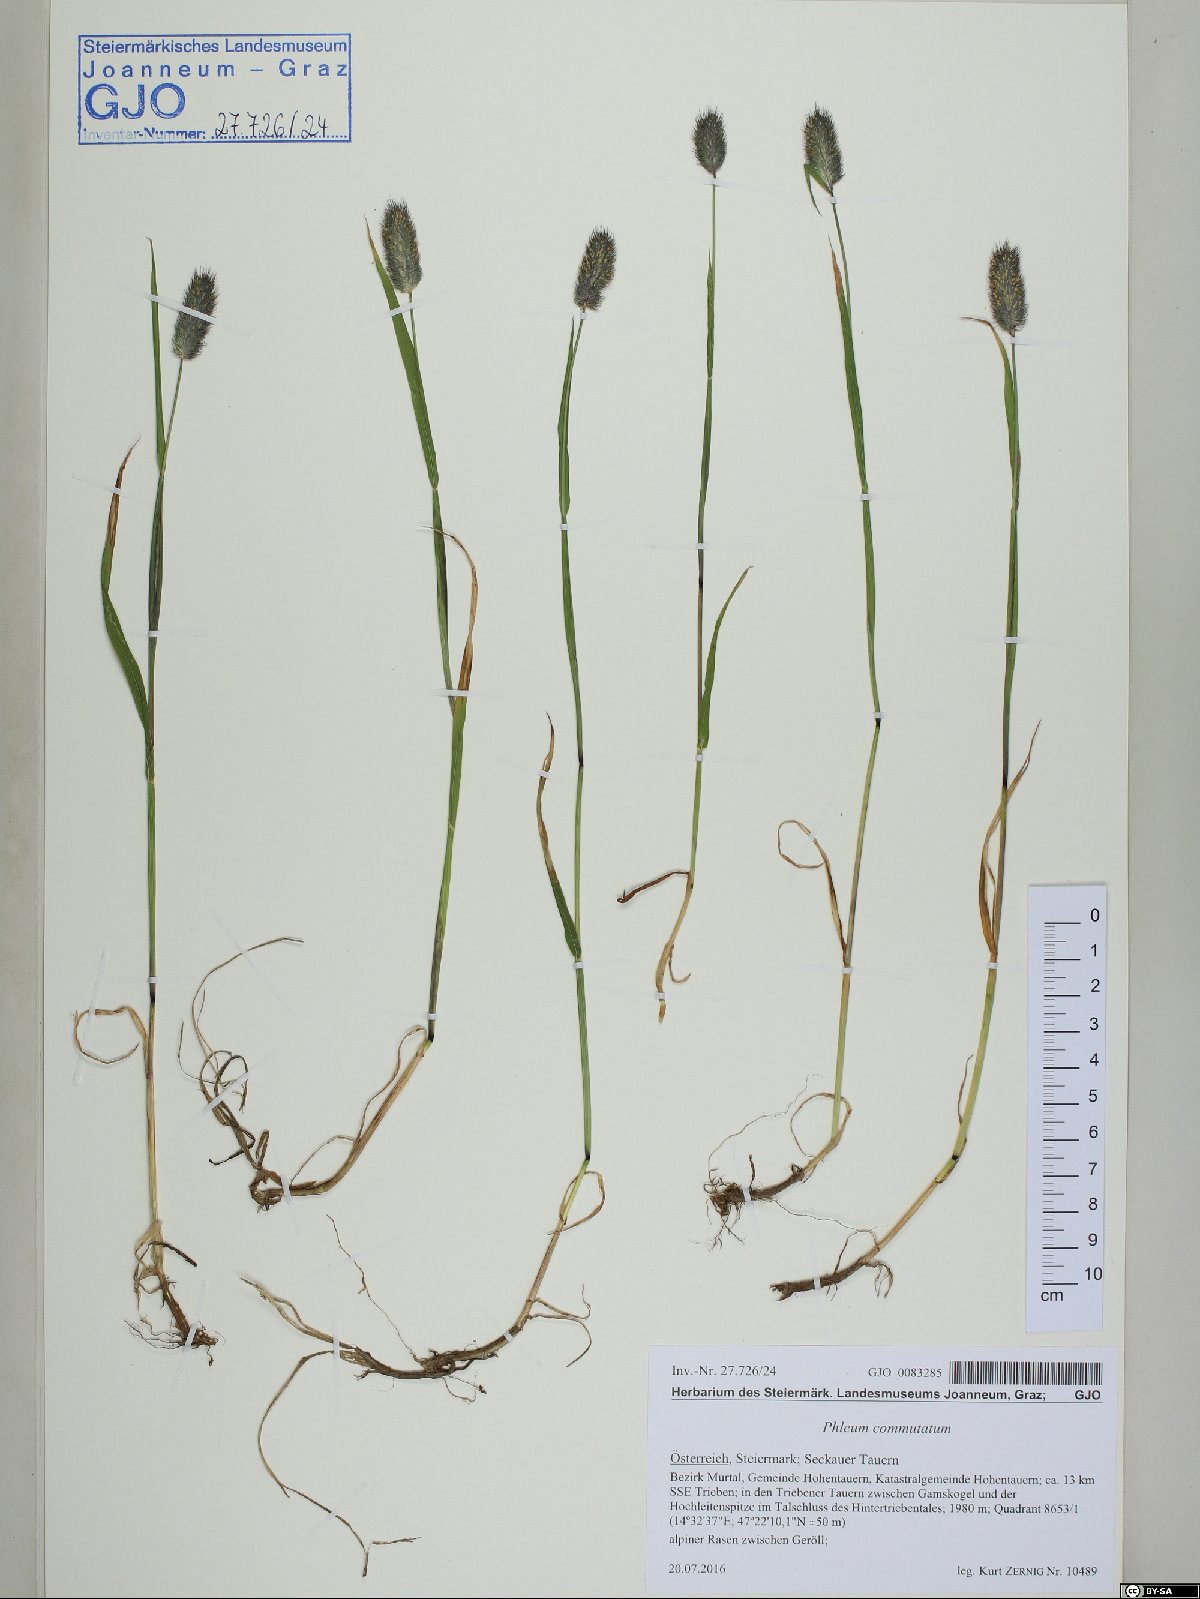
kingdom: Plantae
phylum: Tracheophyta
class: Liliopsida
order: Poales
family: Poaceae
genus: Phleum
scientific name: Phleum alpinum
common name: Alpine cat's-tail
